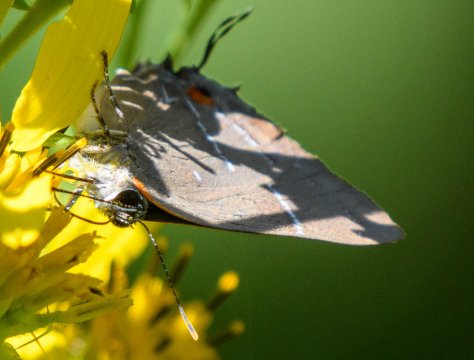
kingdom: Animalia
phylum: Arthropoda
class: Insecta
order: Lepidoptera
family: Lycaenidae
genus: Parrhasius
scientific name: Parrhasius m-album
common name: White-m Hairstreak
